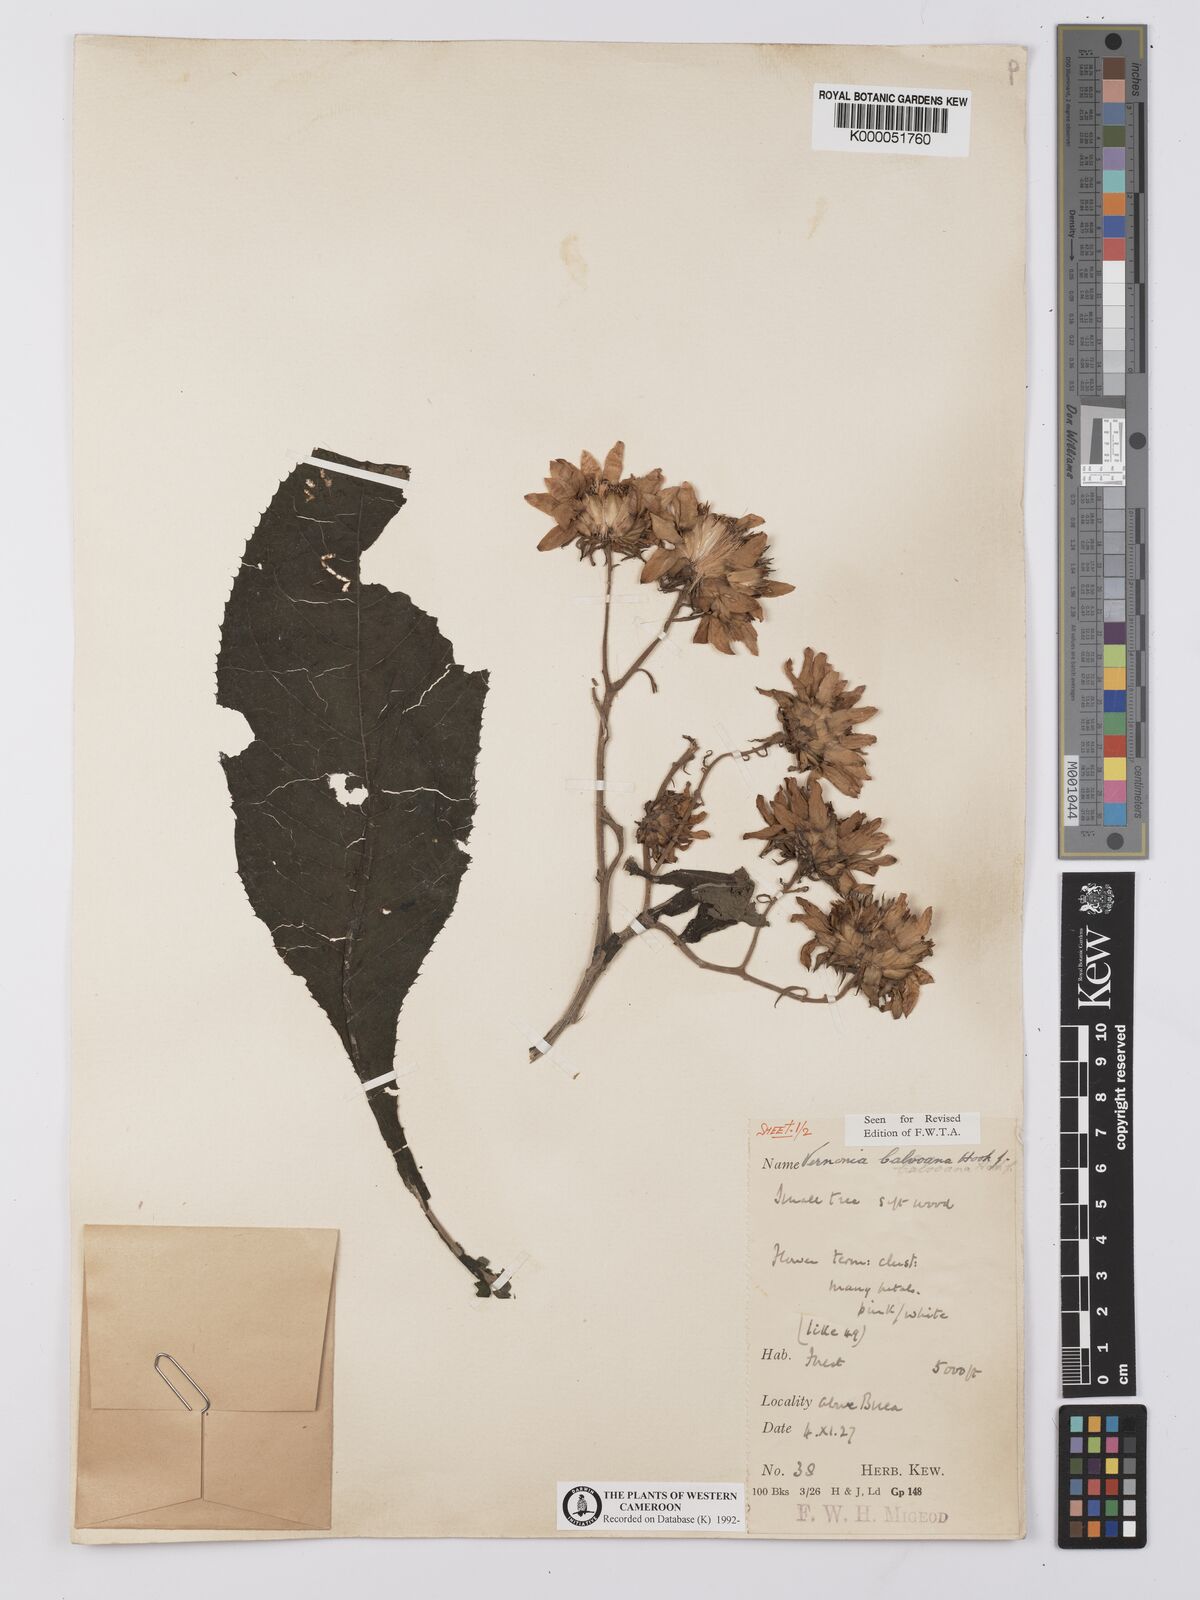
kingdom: Plantae
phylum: Tracheophyta
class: Magnoliopsida
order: Asterales
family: Asteraceae
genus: Baccharoides
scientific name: Baccharoides hymenolepis
